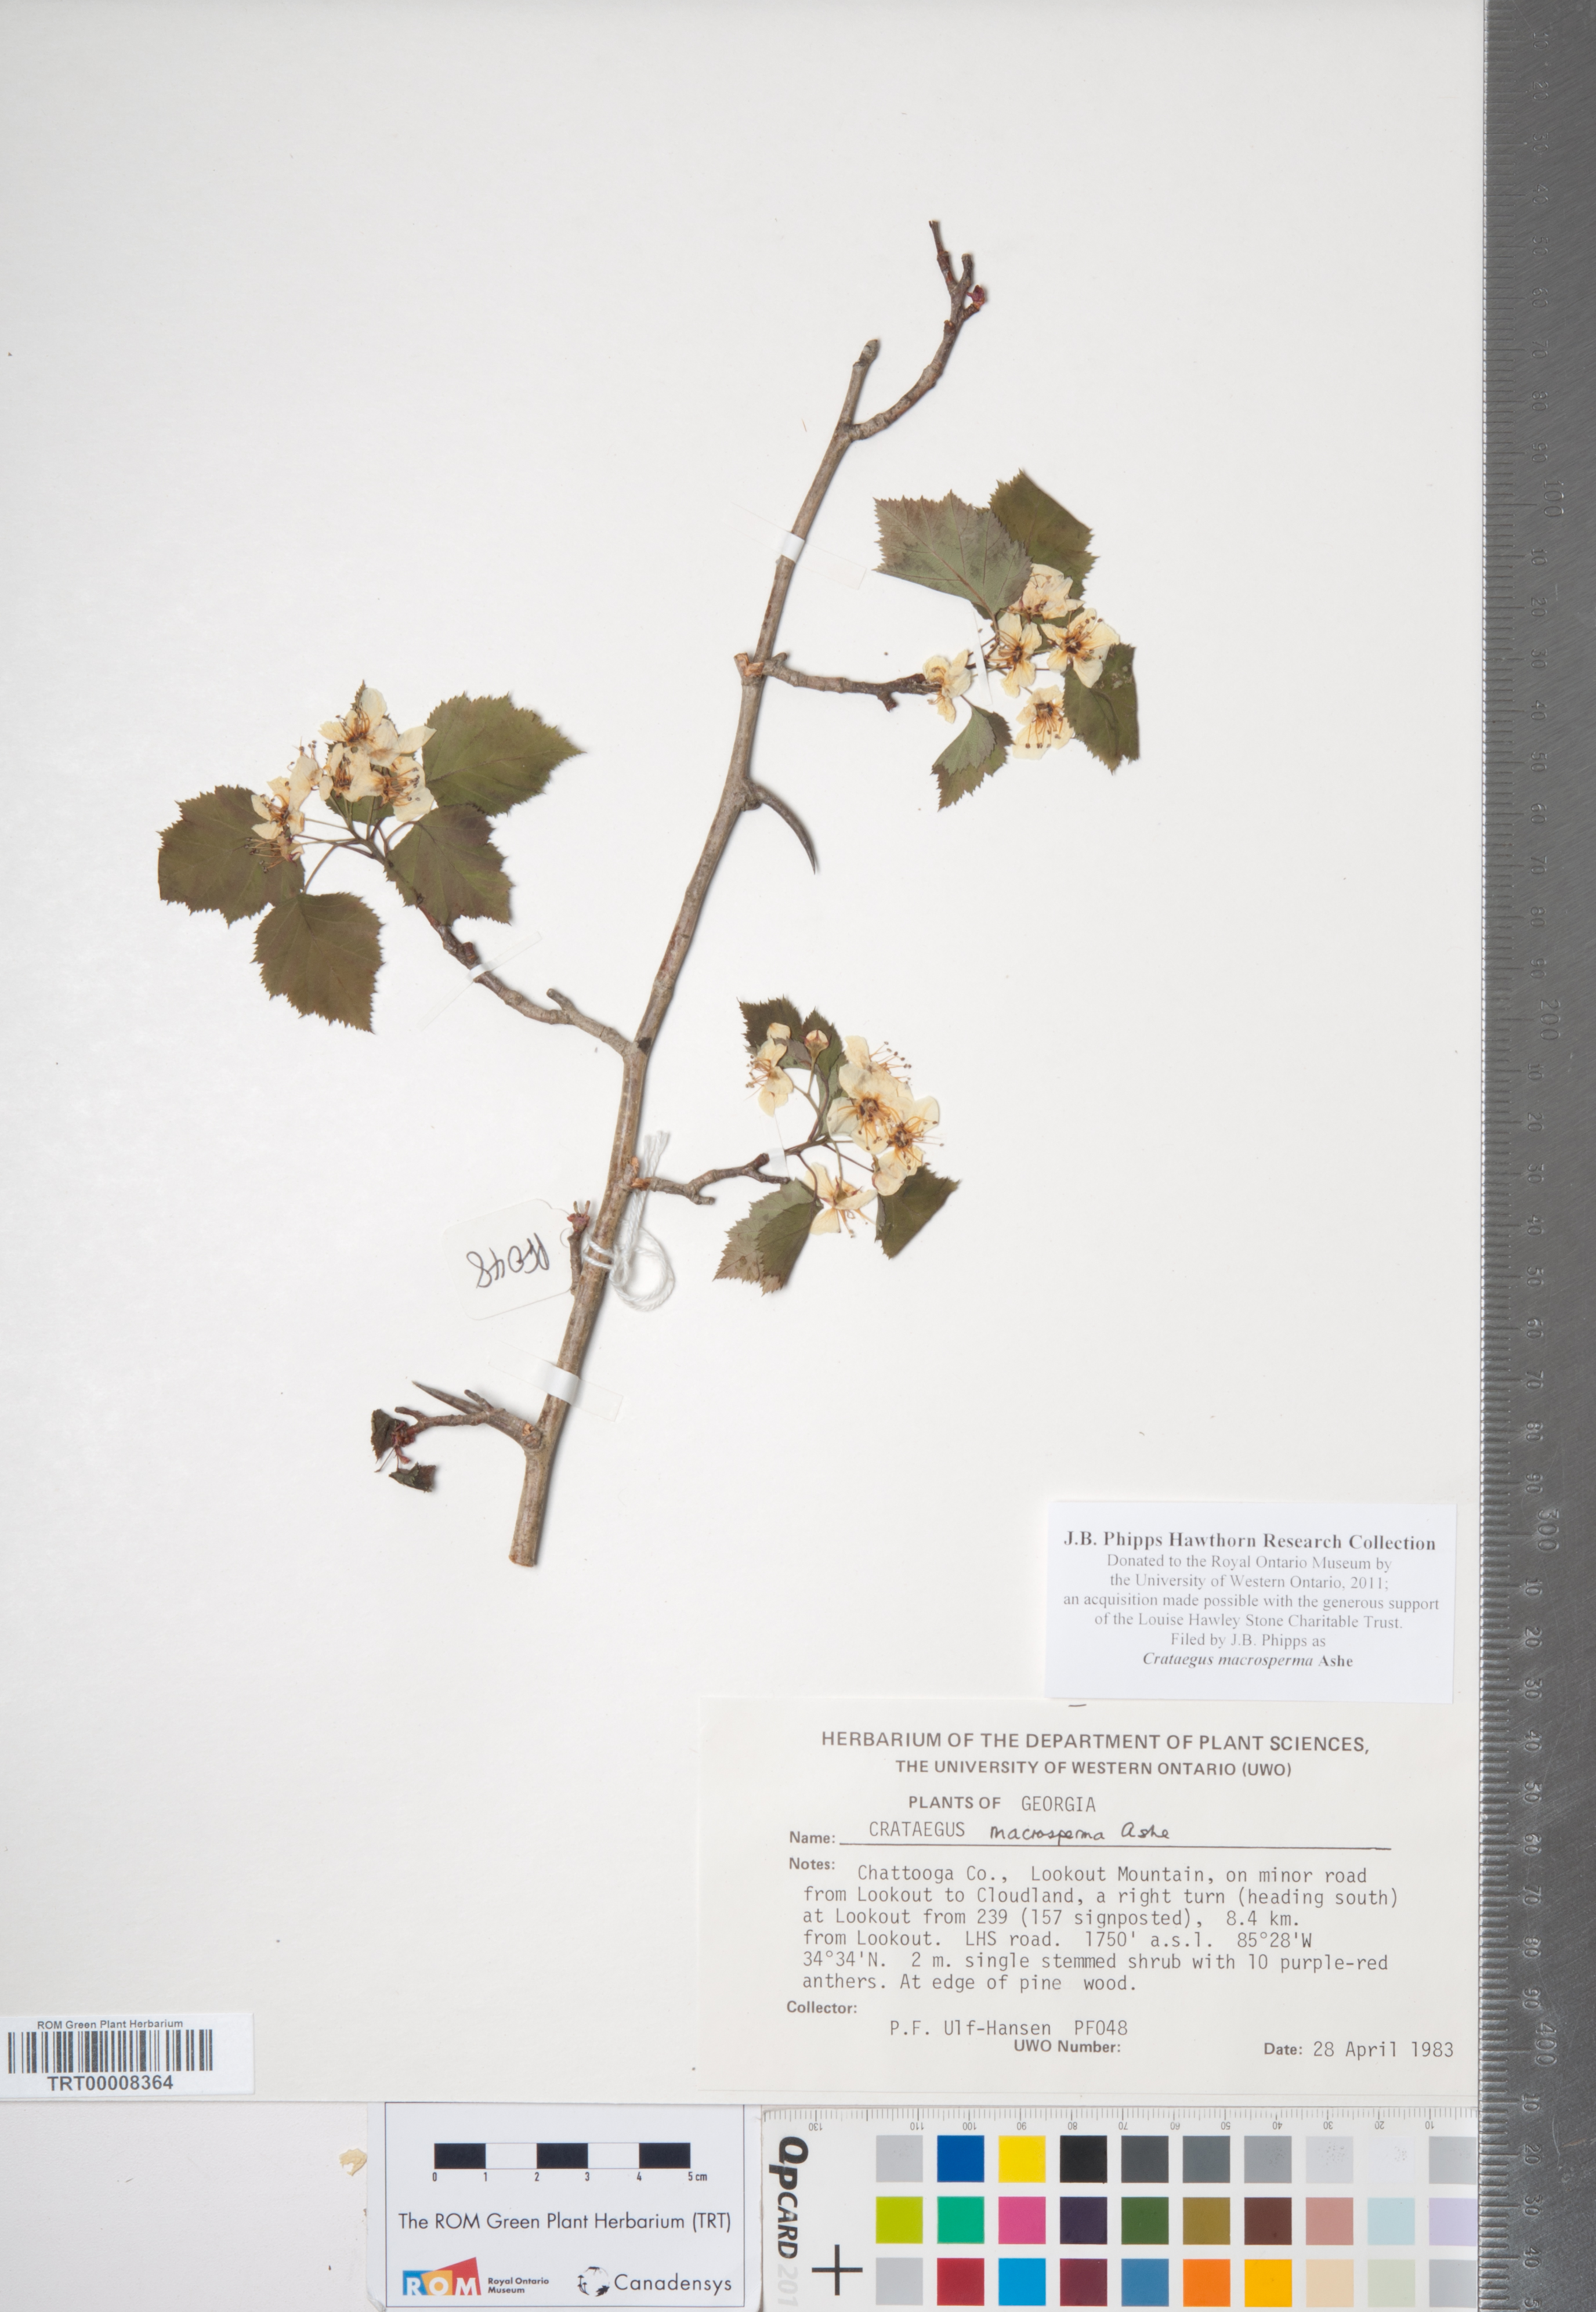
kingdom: Plantae
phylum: Tracheophyta
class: Magnoliopsida
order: Rosales
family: Rosaceae
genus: Crataegus
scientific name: Crataegus macrosperma
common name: Variable hawthorn
